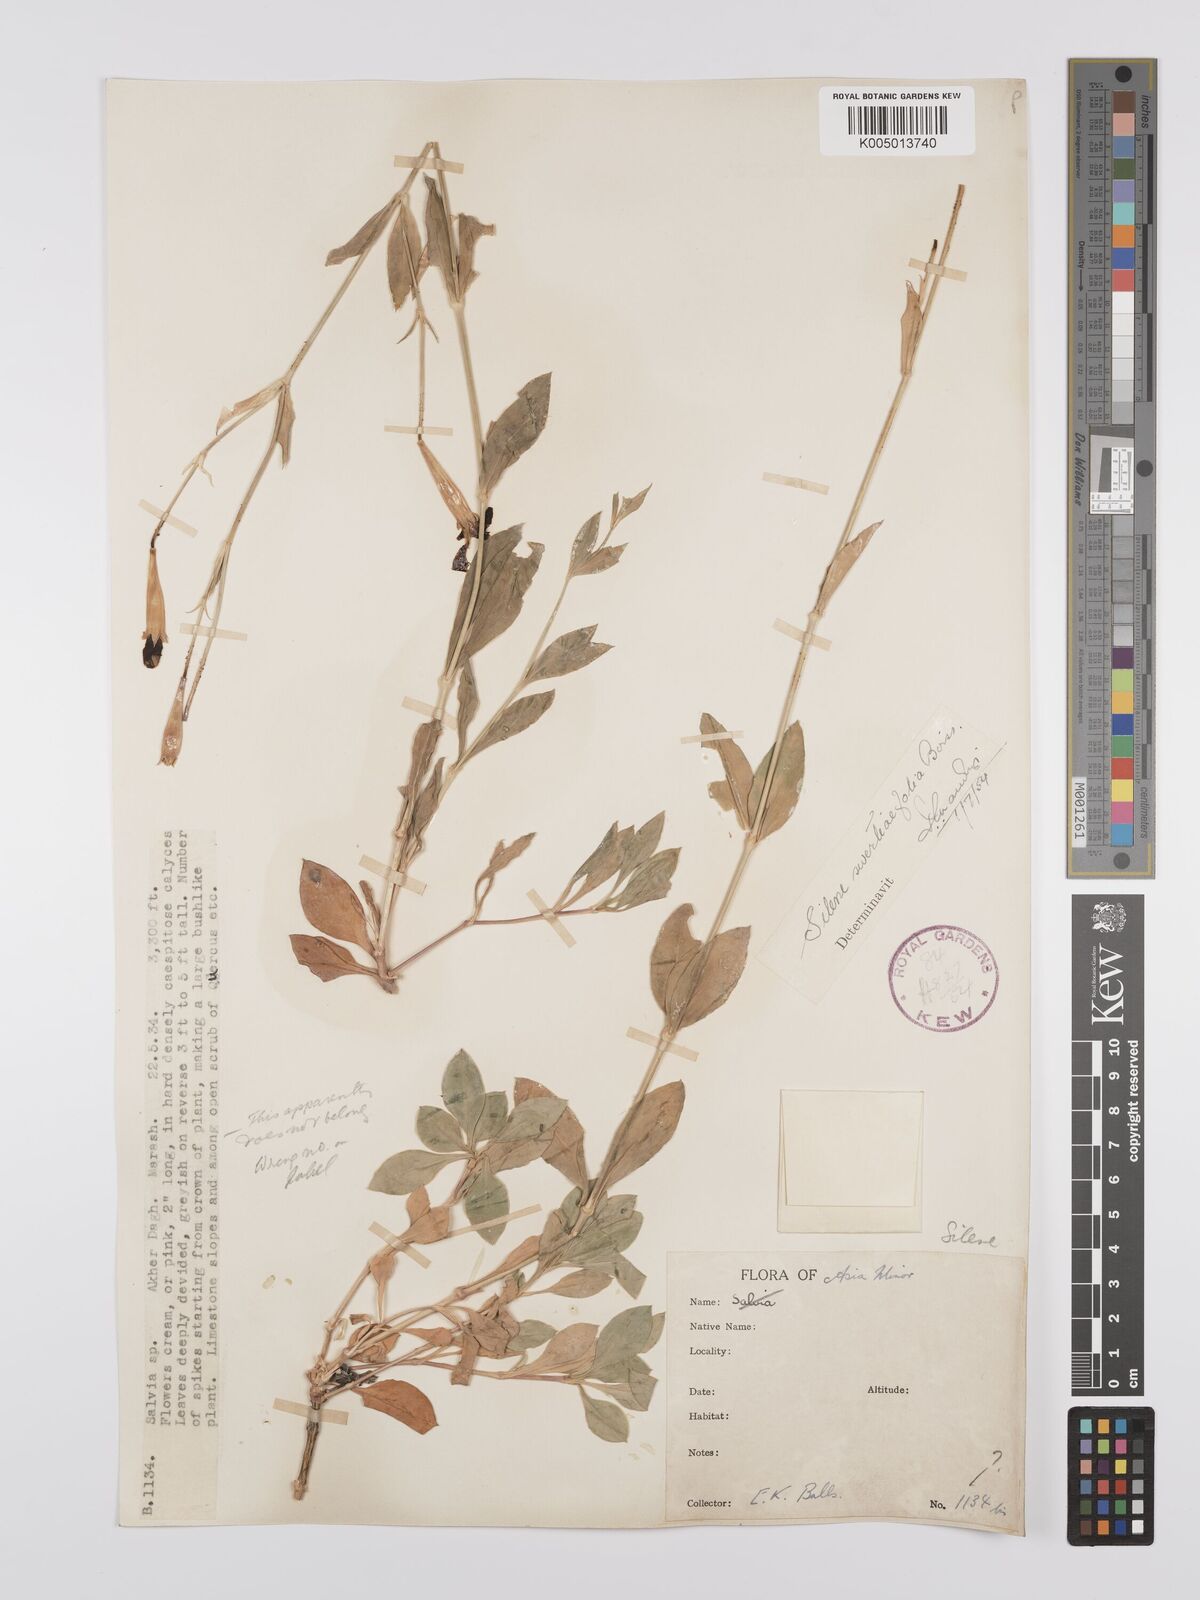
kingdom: Plantae
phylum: Tracheophyta
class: Magnoliopsida
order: Caryophyllales
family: Caryophyllaceae
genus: Silene
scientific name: Silene swertiifolia
